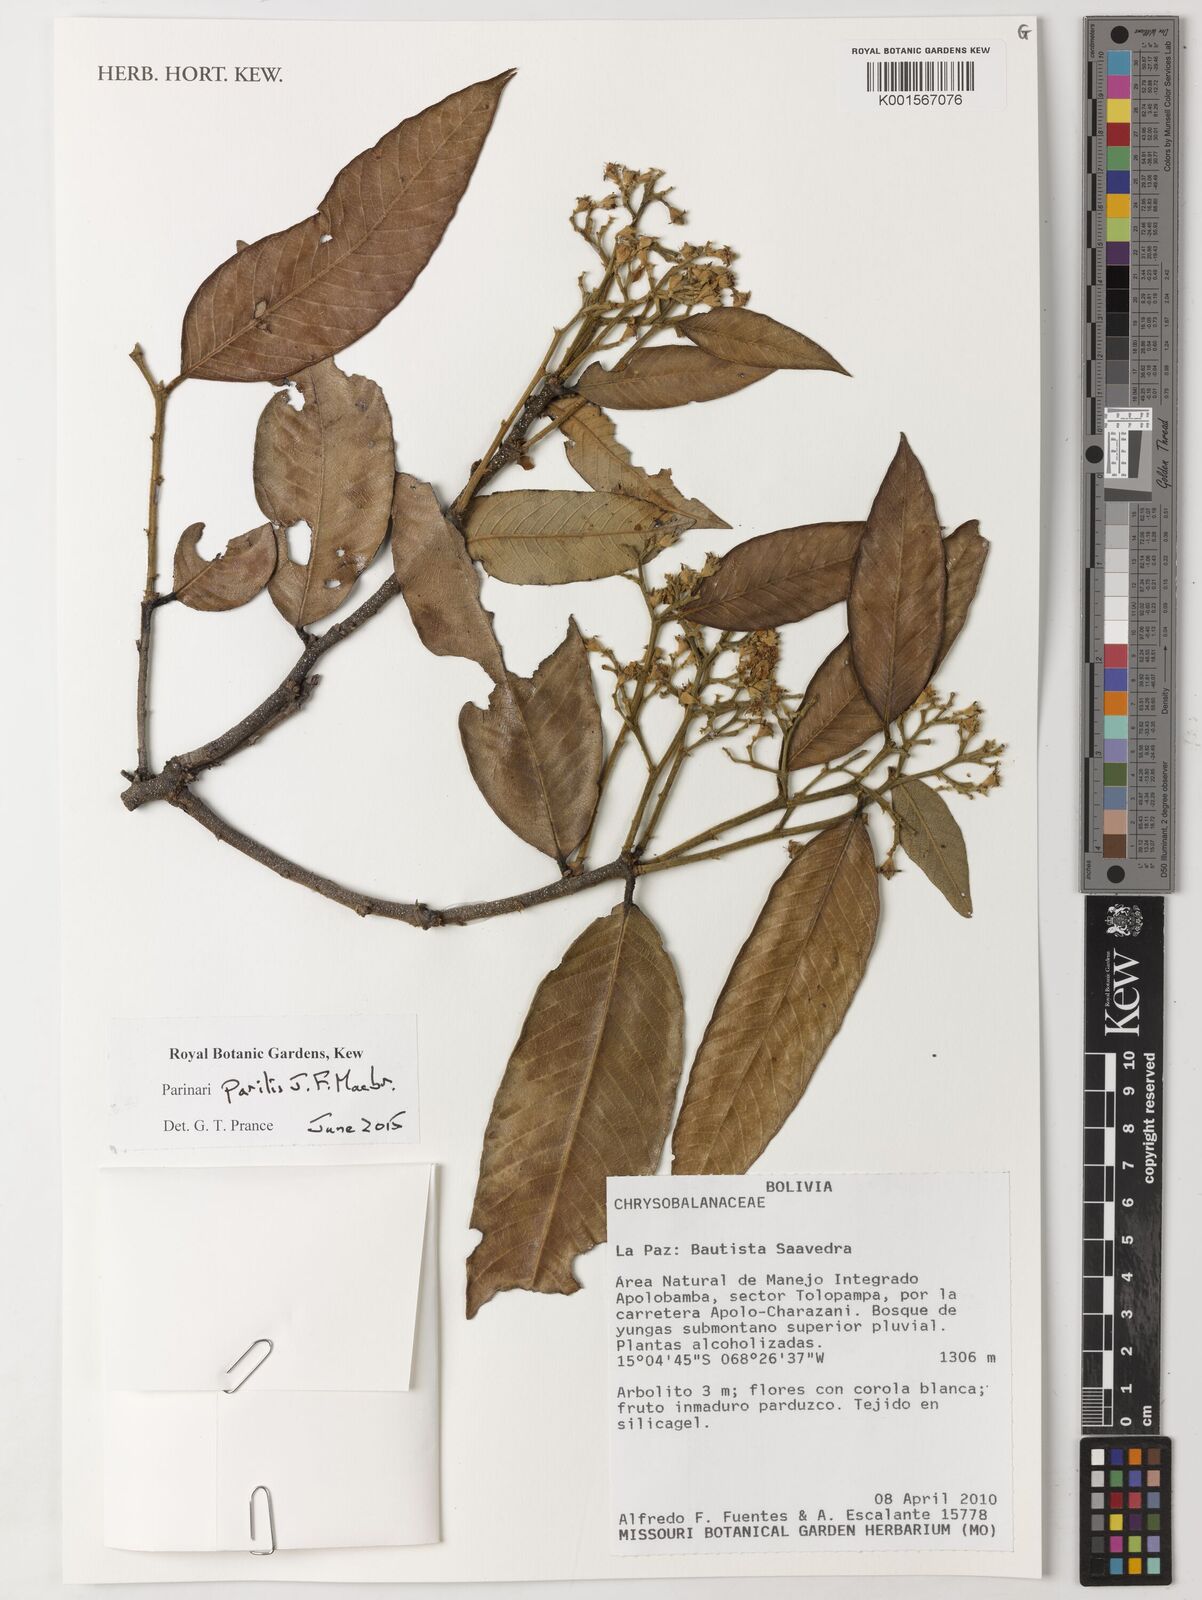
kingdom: Plantae
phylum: Tracheophyta
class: Magnoliopsida
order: Malpighiales
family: Chrysobalanaceae
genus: Parinari
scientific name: Parinari parilis
